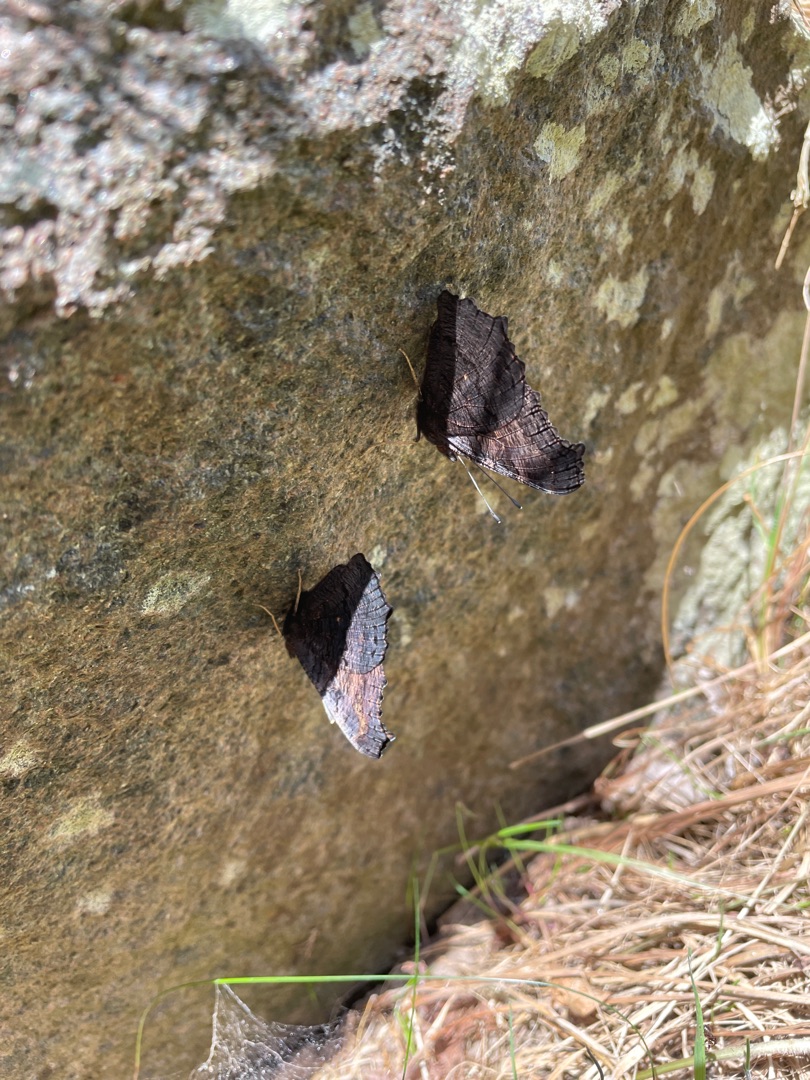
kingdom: Animalia
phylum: Arthropoda
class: Insecta
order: Lepidoptera
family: Nymphalidae
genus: Aglais
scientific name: Aglais io
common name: Dagpåfugleøje
